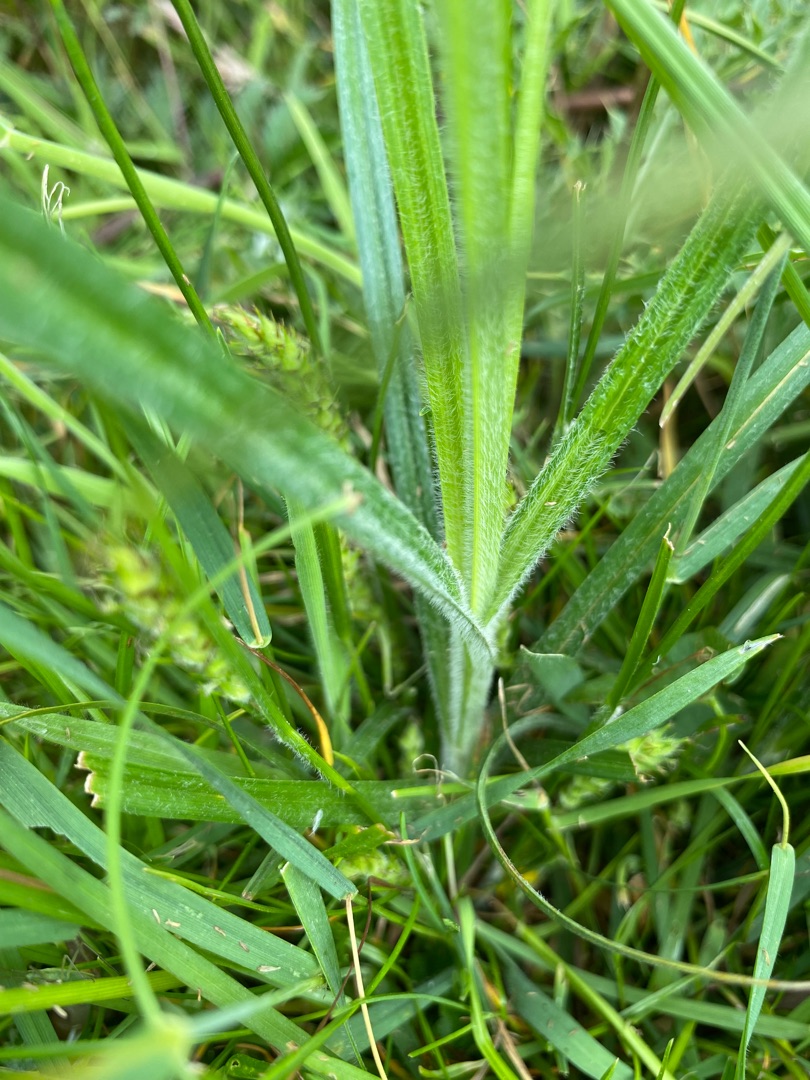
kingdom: Plantae
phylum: Tracheophyta
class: Liliopsida
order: Poales
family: Cyperaceae
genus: Carex
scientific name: Carex hirta
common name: Håret star
